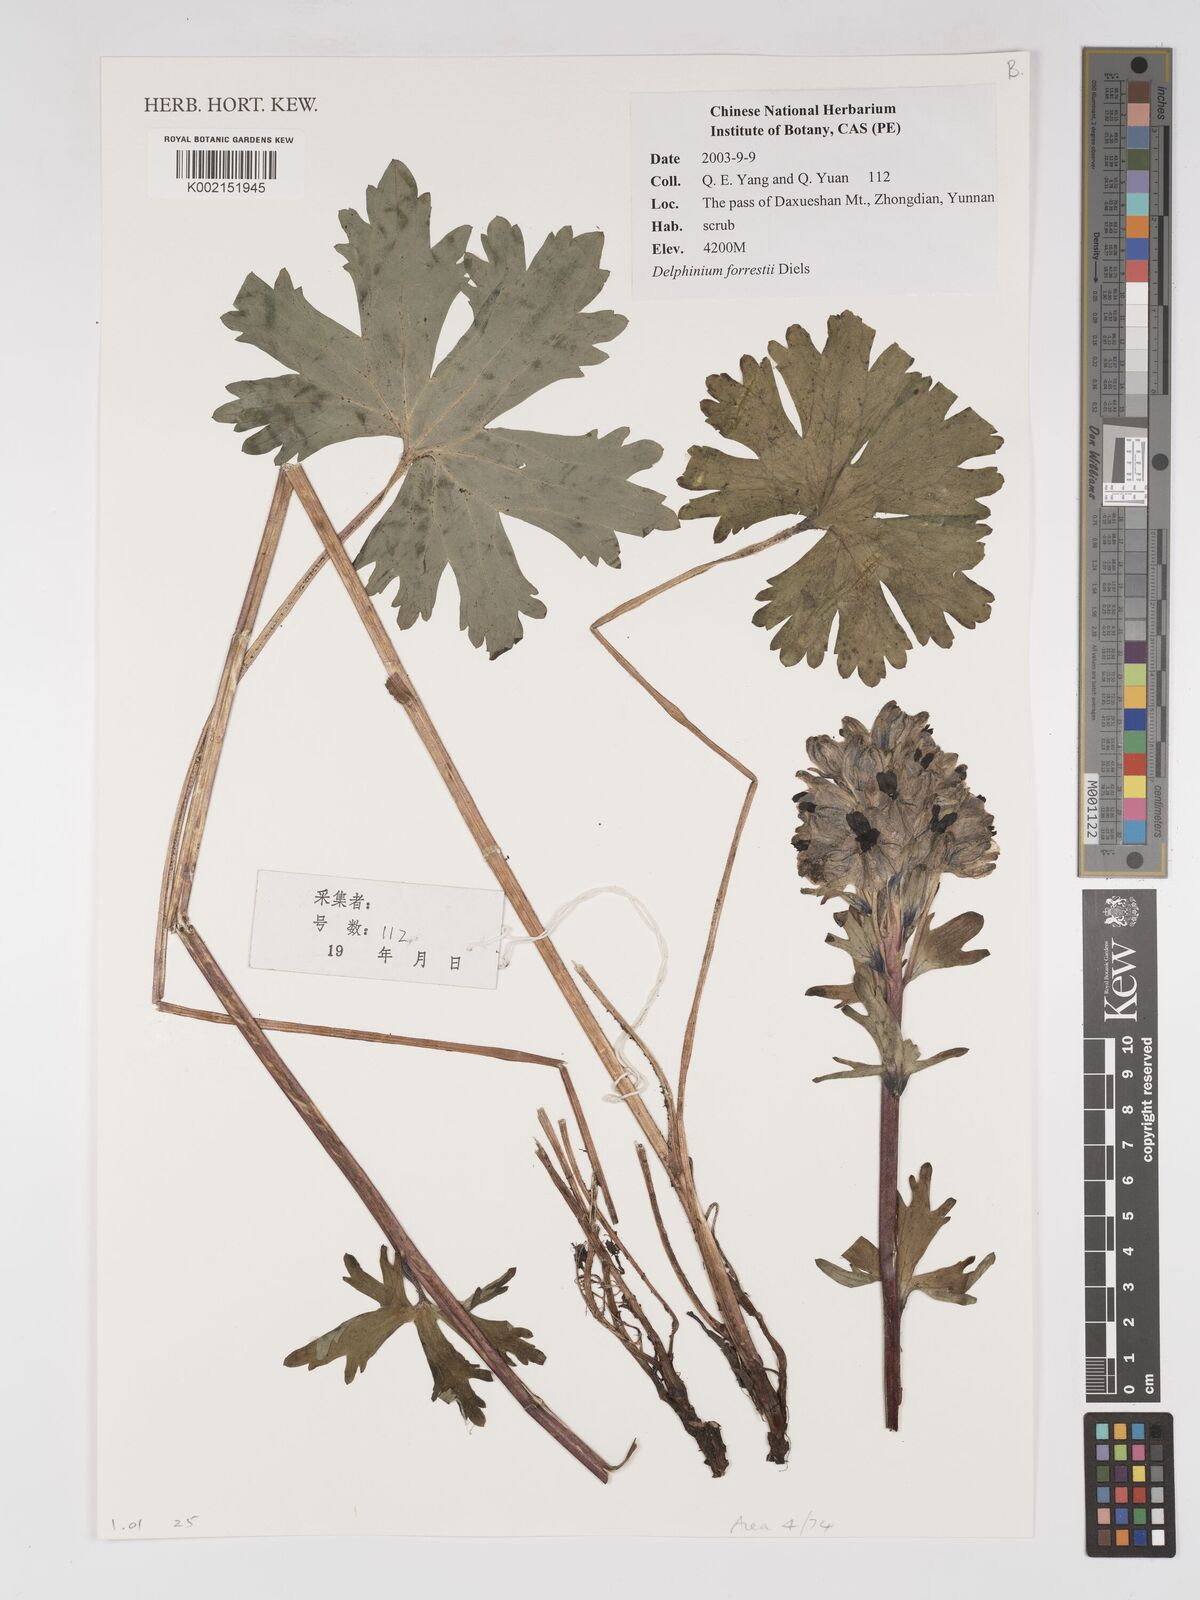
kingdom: Plantae
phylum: Tracheophyta
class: Magnoliopsida
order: Ranunculales
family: Ranunculaceae
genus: Delphinium
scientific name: Delphinium trichophorum
